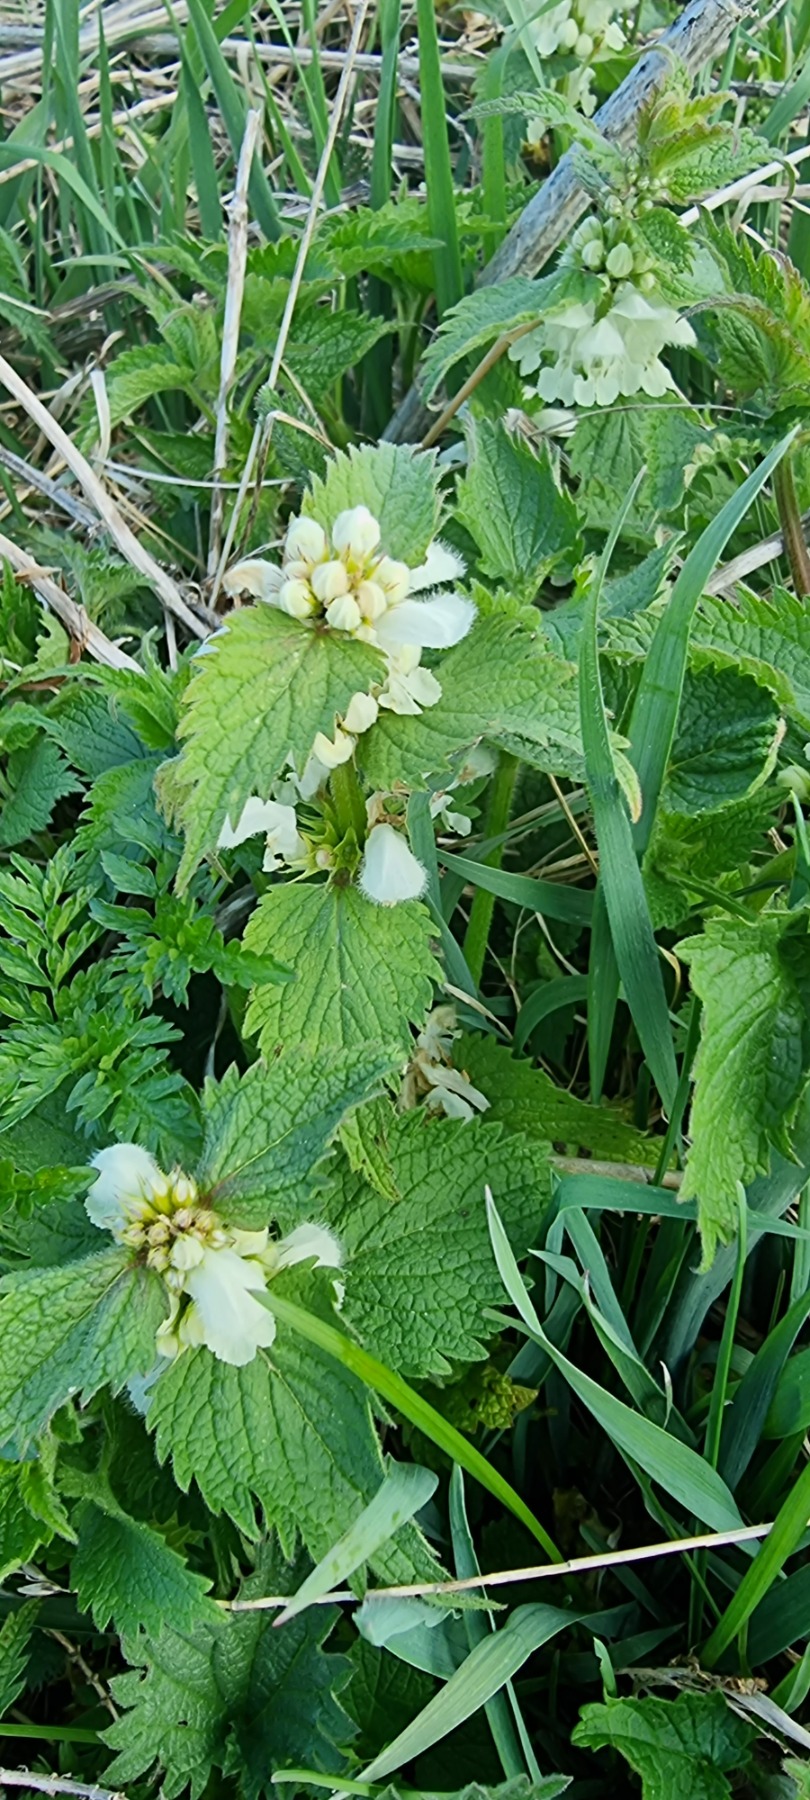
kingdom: Plantae
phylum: Tracheophyta
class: Magnoliopsida
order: Lamiales
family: Lamiaceae
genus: Lamium
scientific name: Lamium album
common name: Døvnælde
